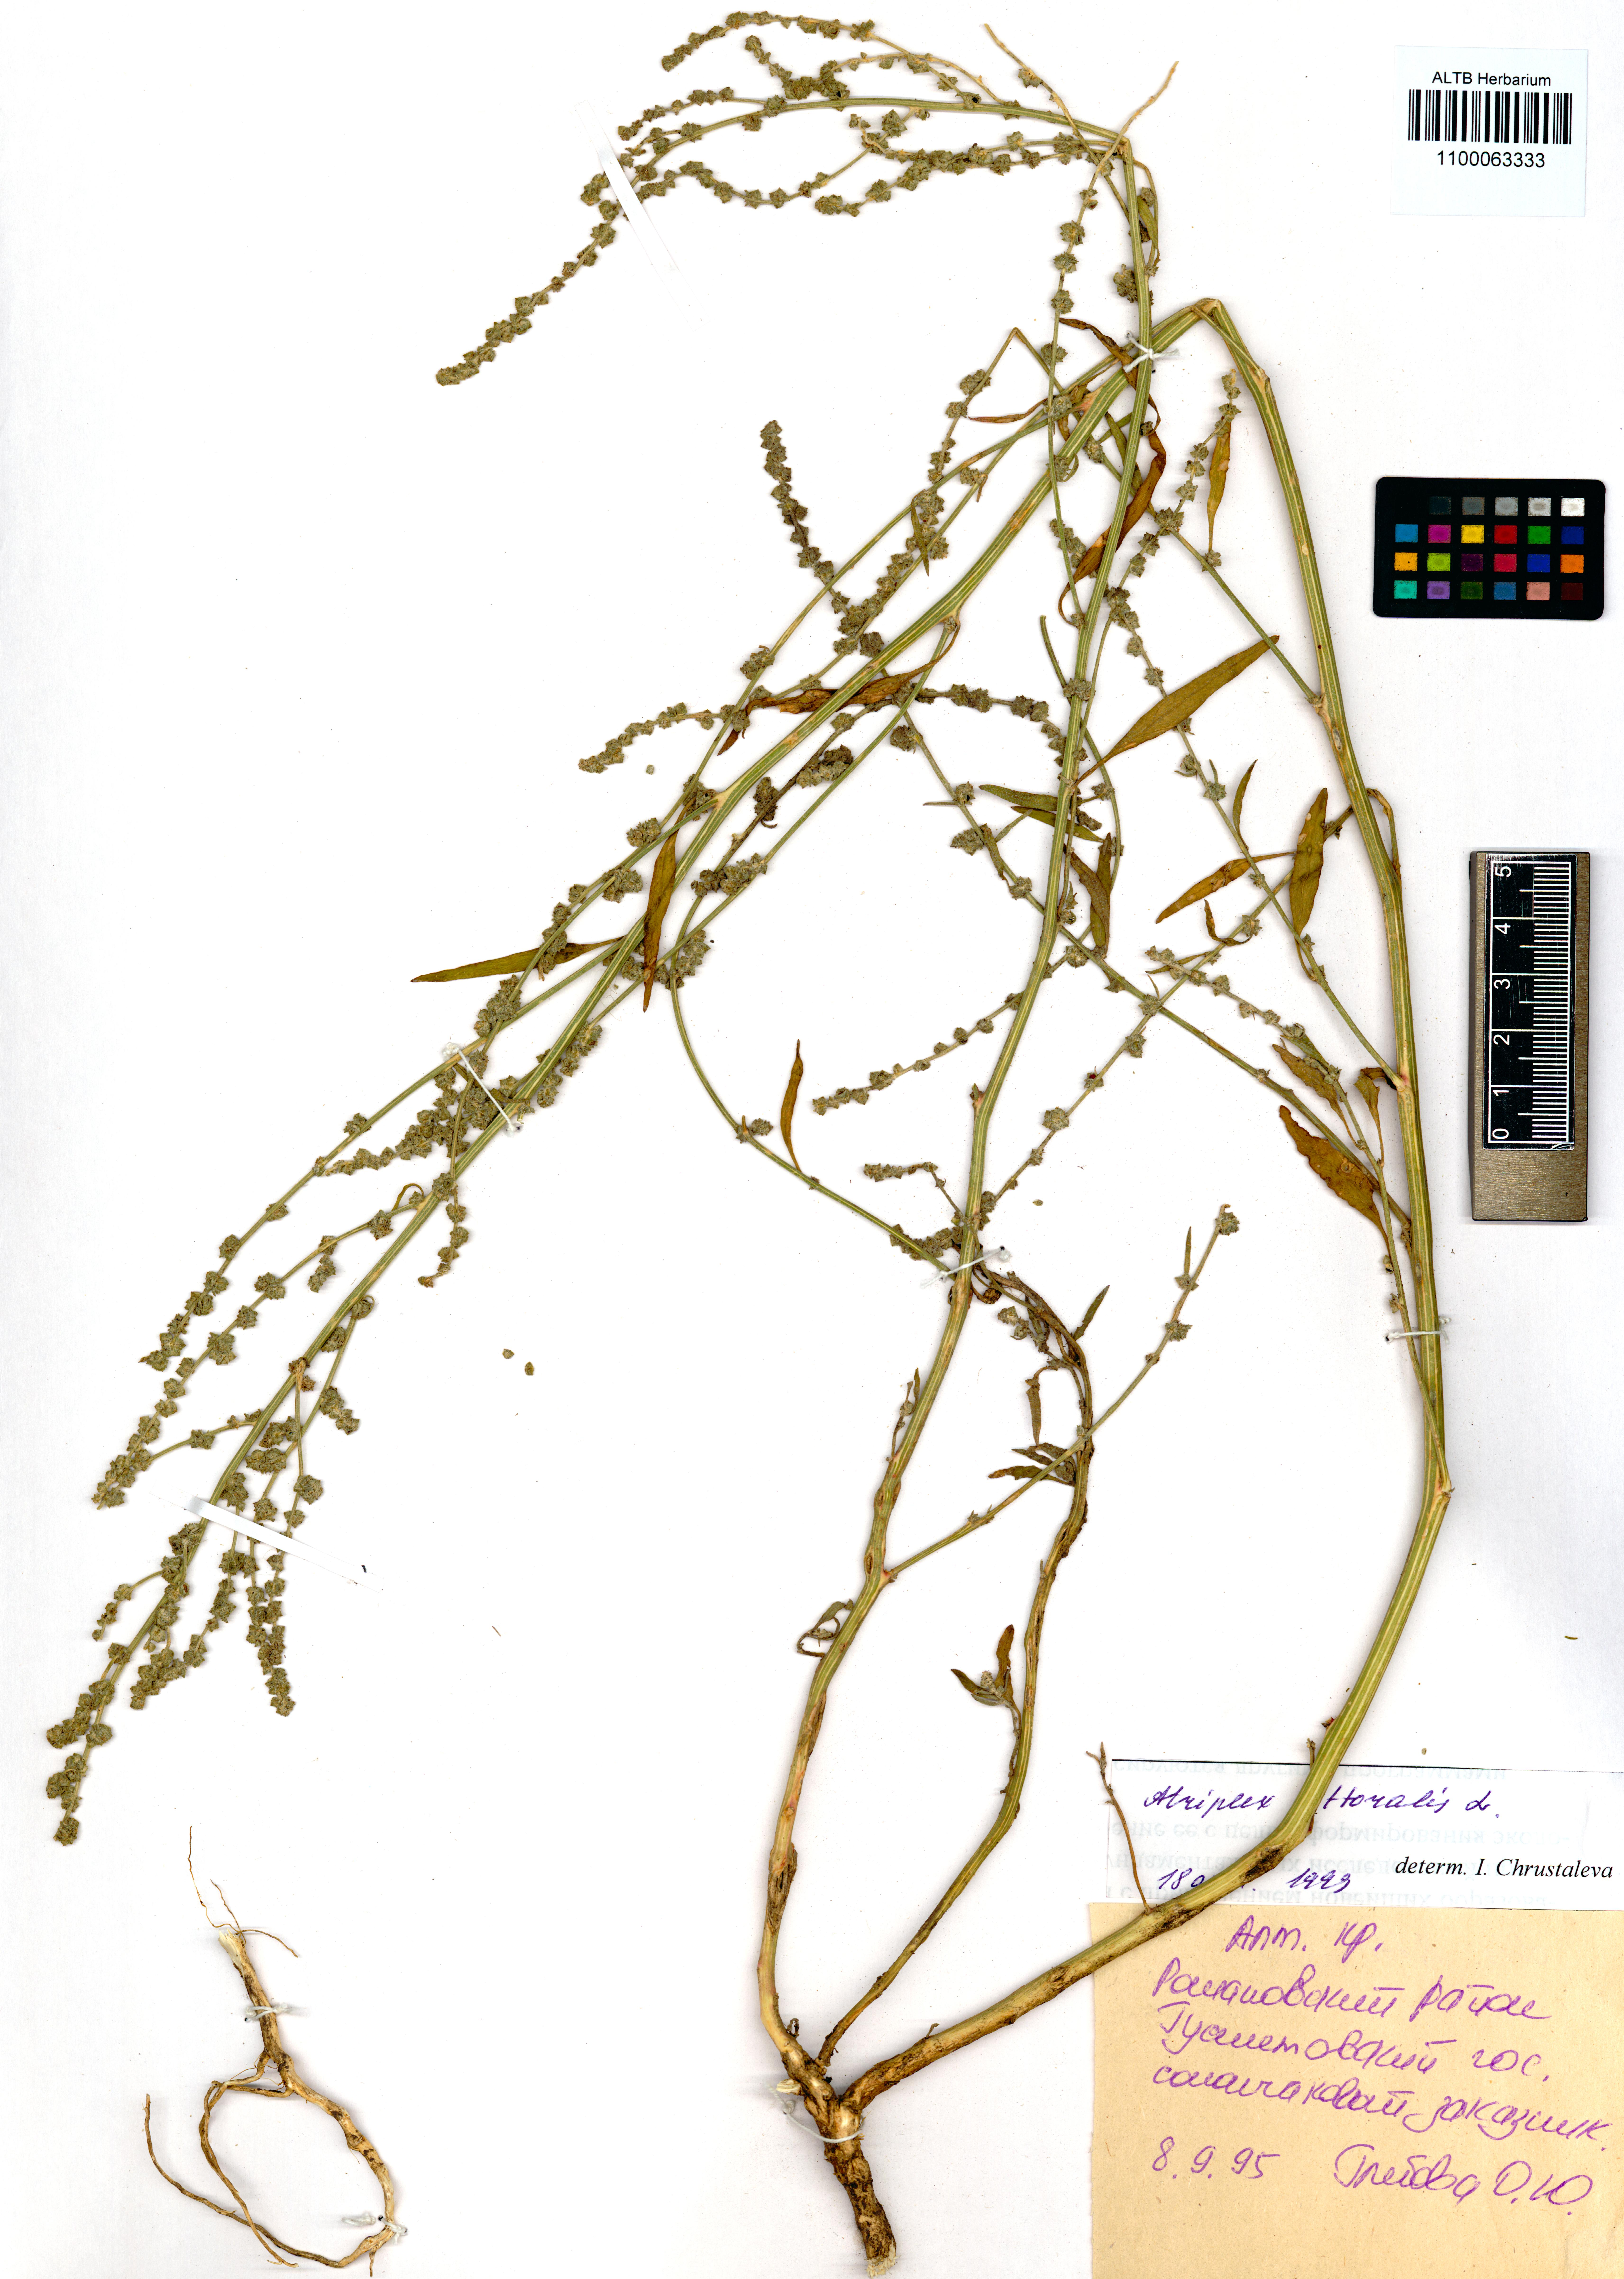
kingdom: Plantae
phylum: Tracheophyta
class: Magnoliopsida
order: Caryophyllales
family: Amaranthaceae
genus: Atriplex
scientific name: Atriplex littoralis
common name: Grass-leaved orache
